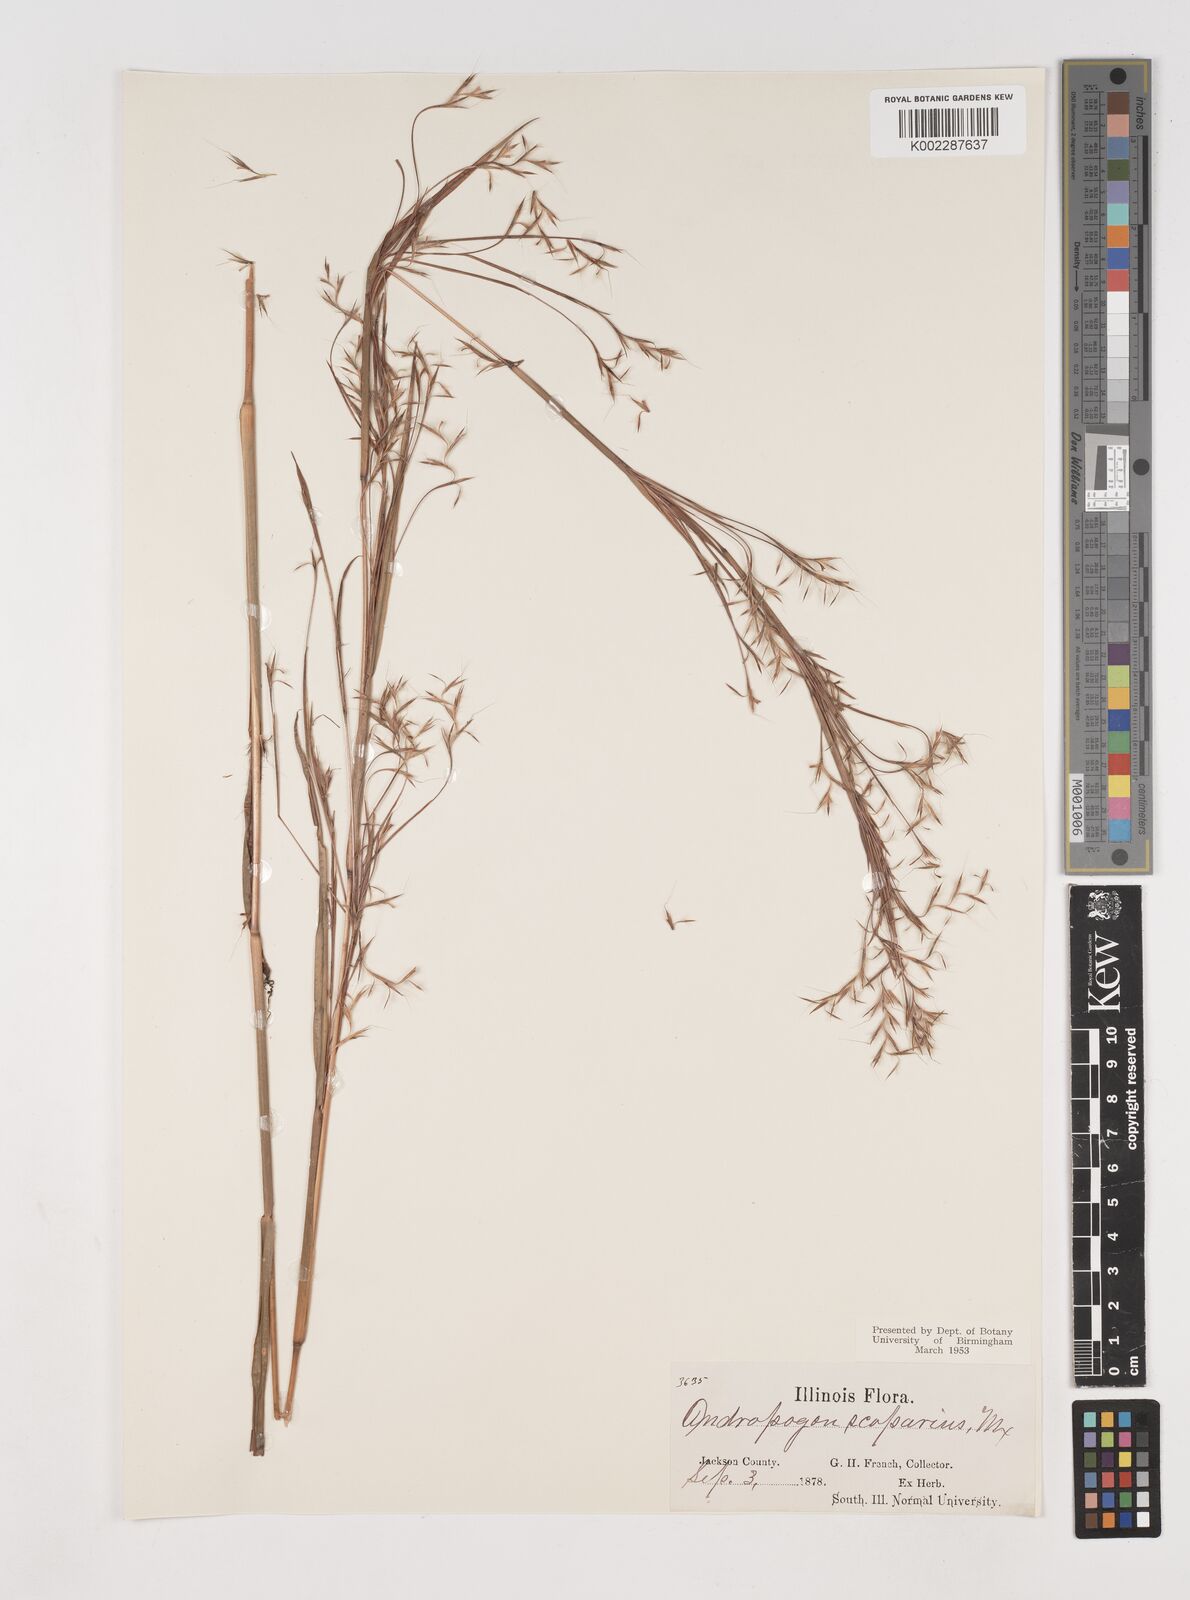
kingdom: Plantae
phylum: Tracheophyta
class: Liliopsida
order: Poales
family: Poaceae
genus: Schizachyrium
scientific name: Schizachyrium scoparium
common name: Little bluestem
